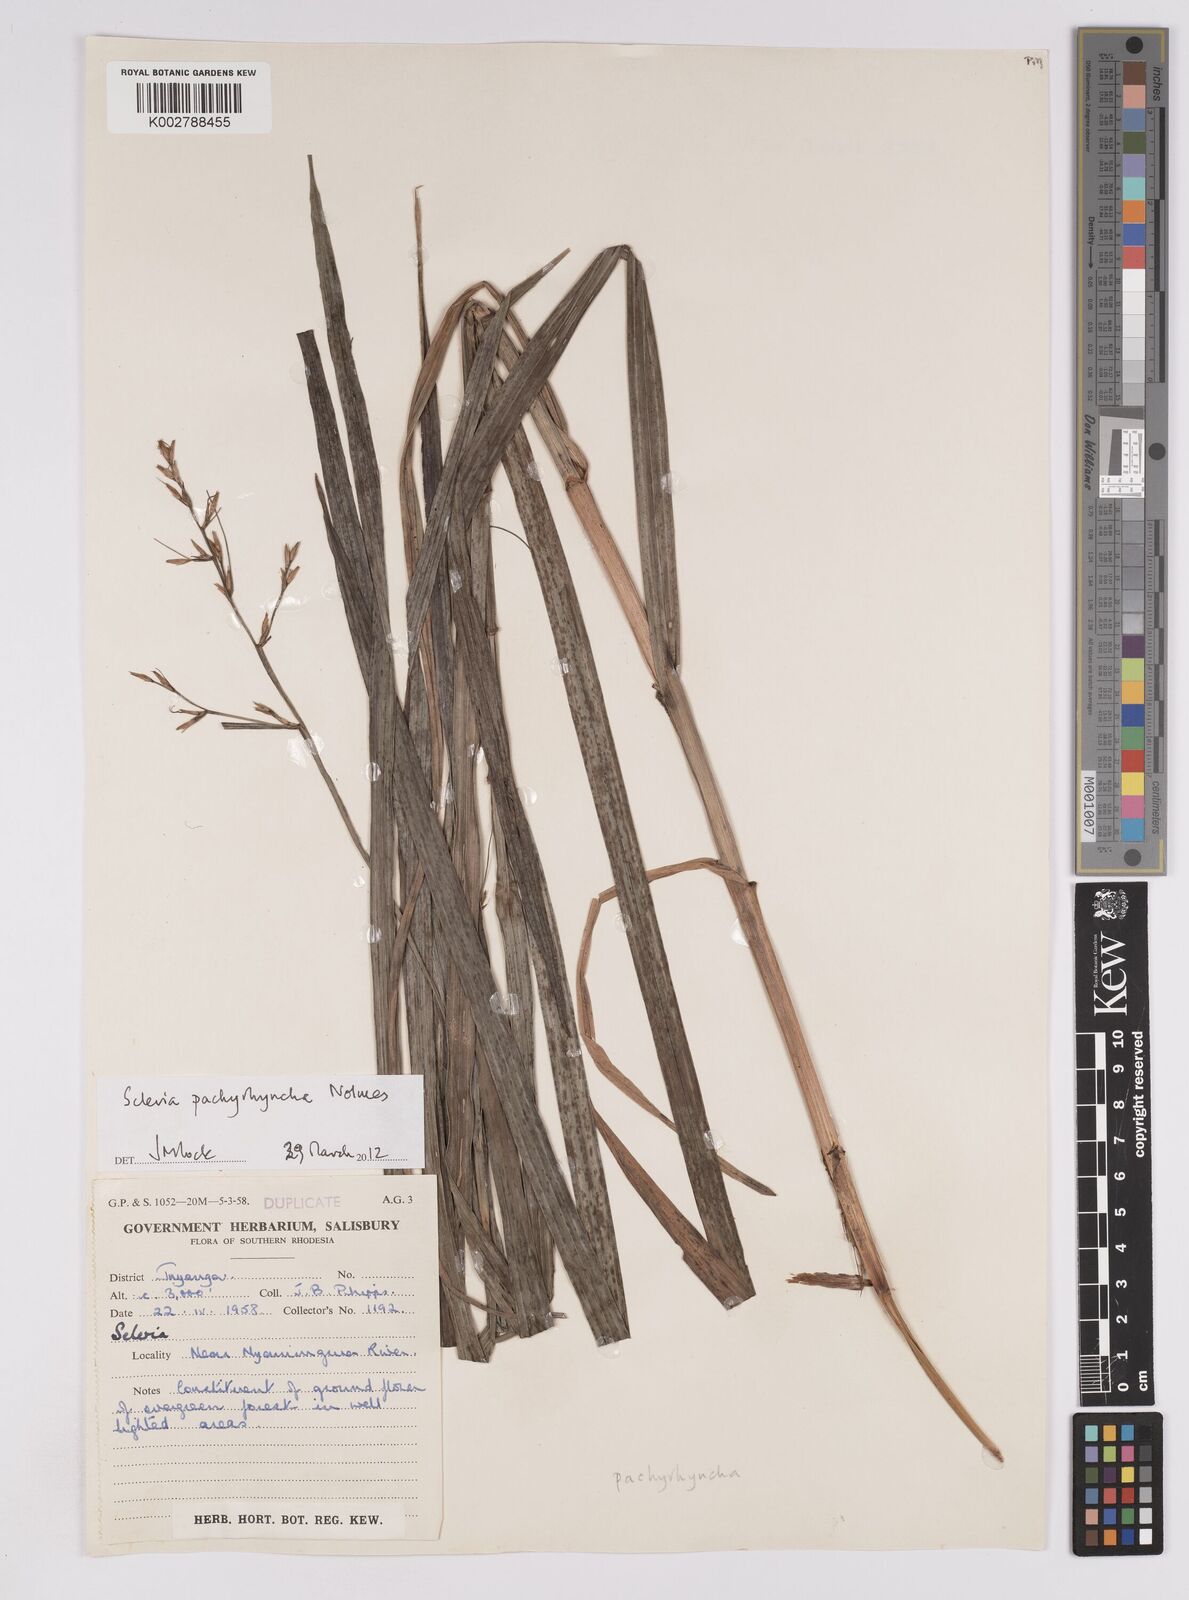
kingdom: Plantae
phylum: Tracheophyta
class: Liliopsida
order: Poales
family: Cyperaceae
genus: Scleria
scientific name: Scleria pachyrrhyncha
